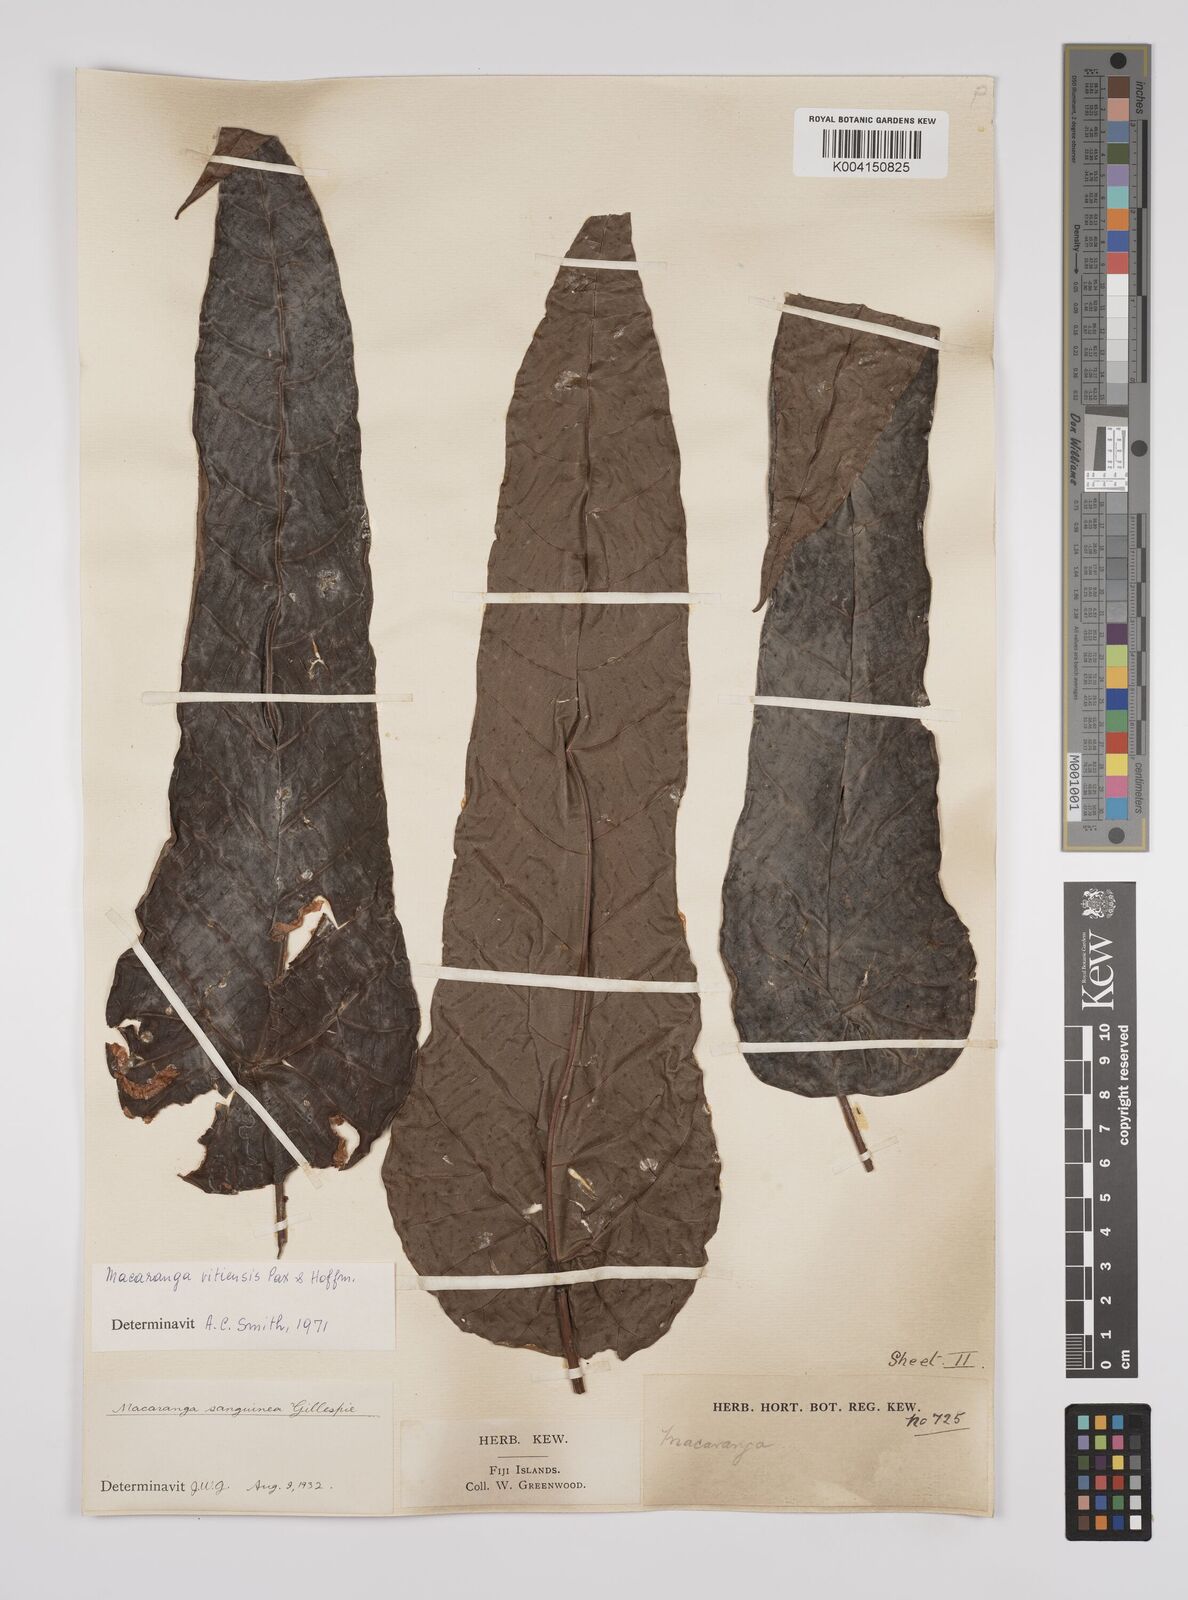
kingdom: Plantae
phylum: Tracheophyta
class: Magnoliopsida
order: Malpighiales
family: Euphorbiaceae
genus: Macaranga
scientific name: Macaranga vitiensis
